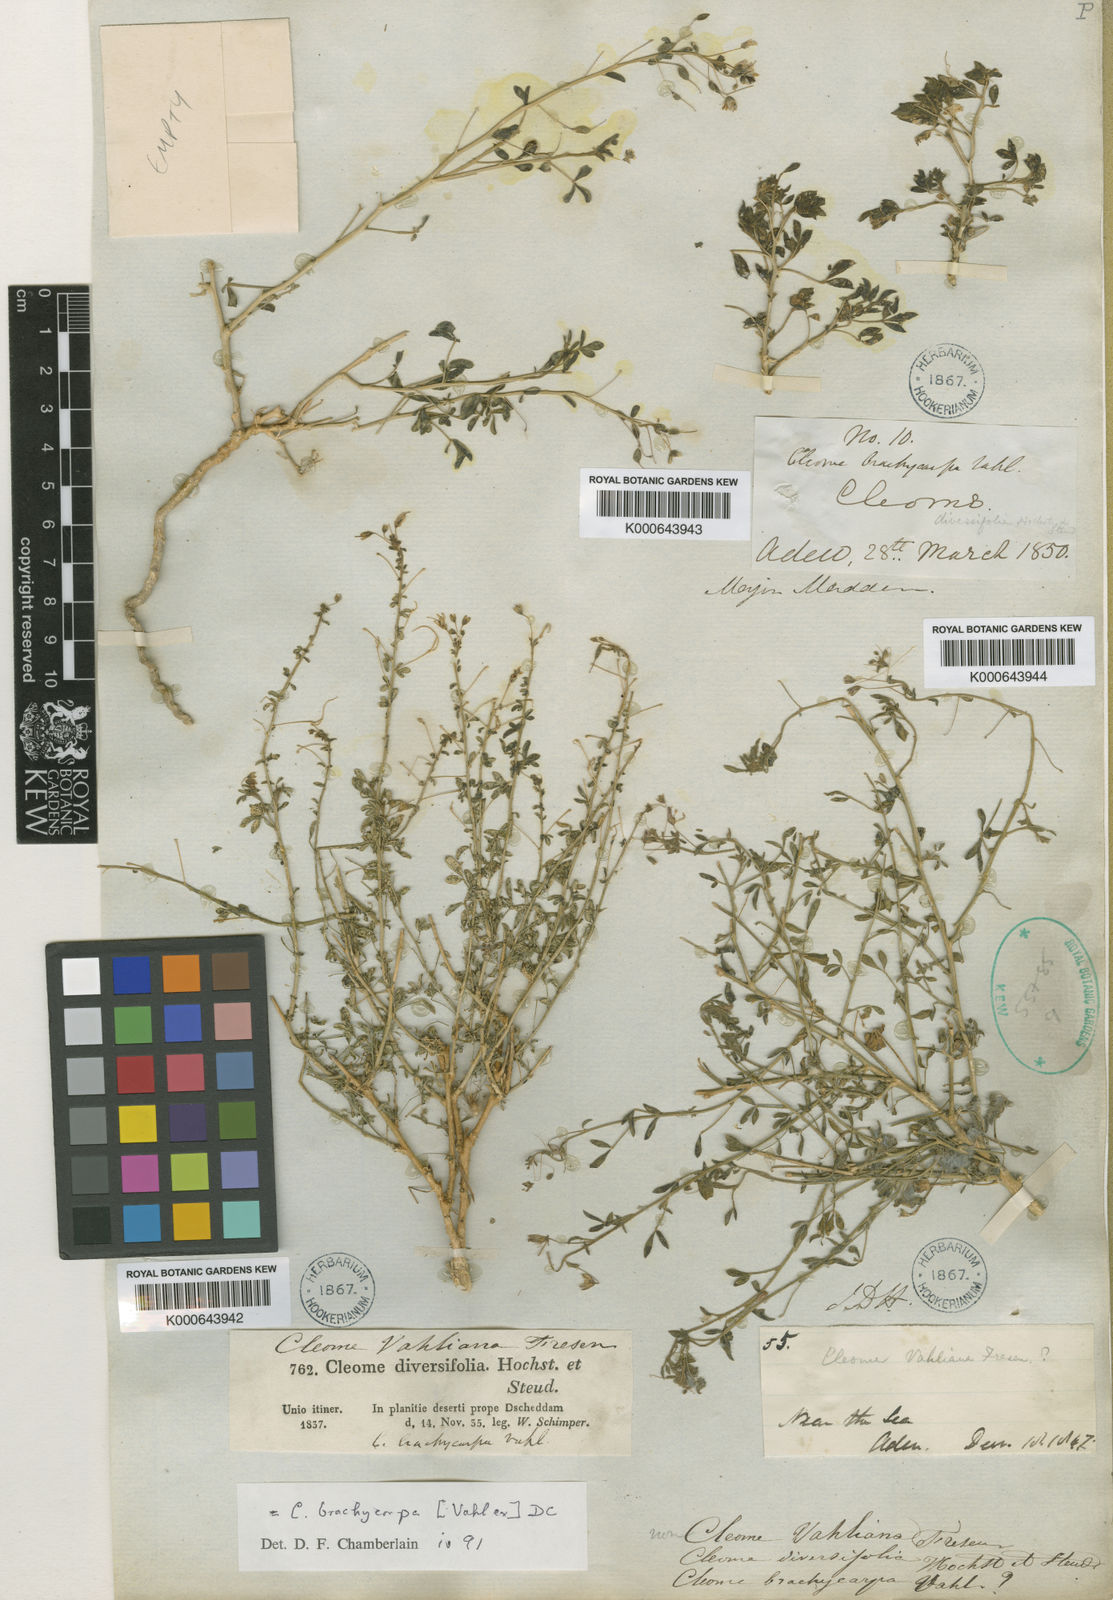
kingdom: Plantae
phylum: Tracheophyta
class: Magnoliopsida
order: Brassicales
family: Cleomaceae
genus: Stylidocleome
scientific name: Stylidocleome brachycarpa
